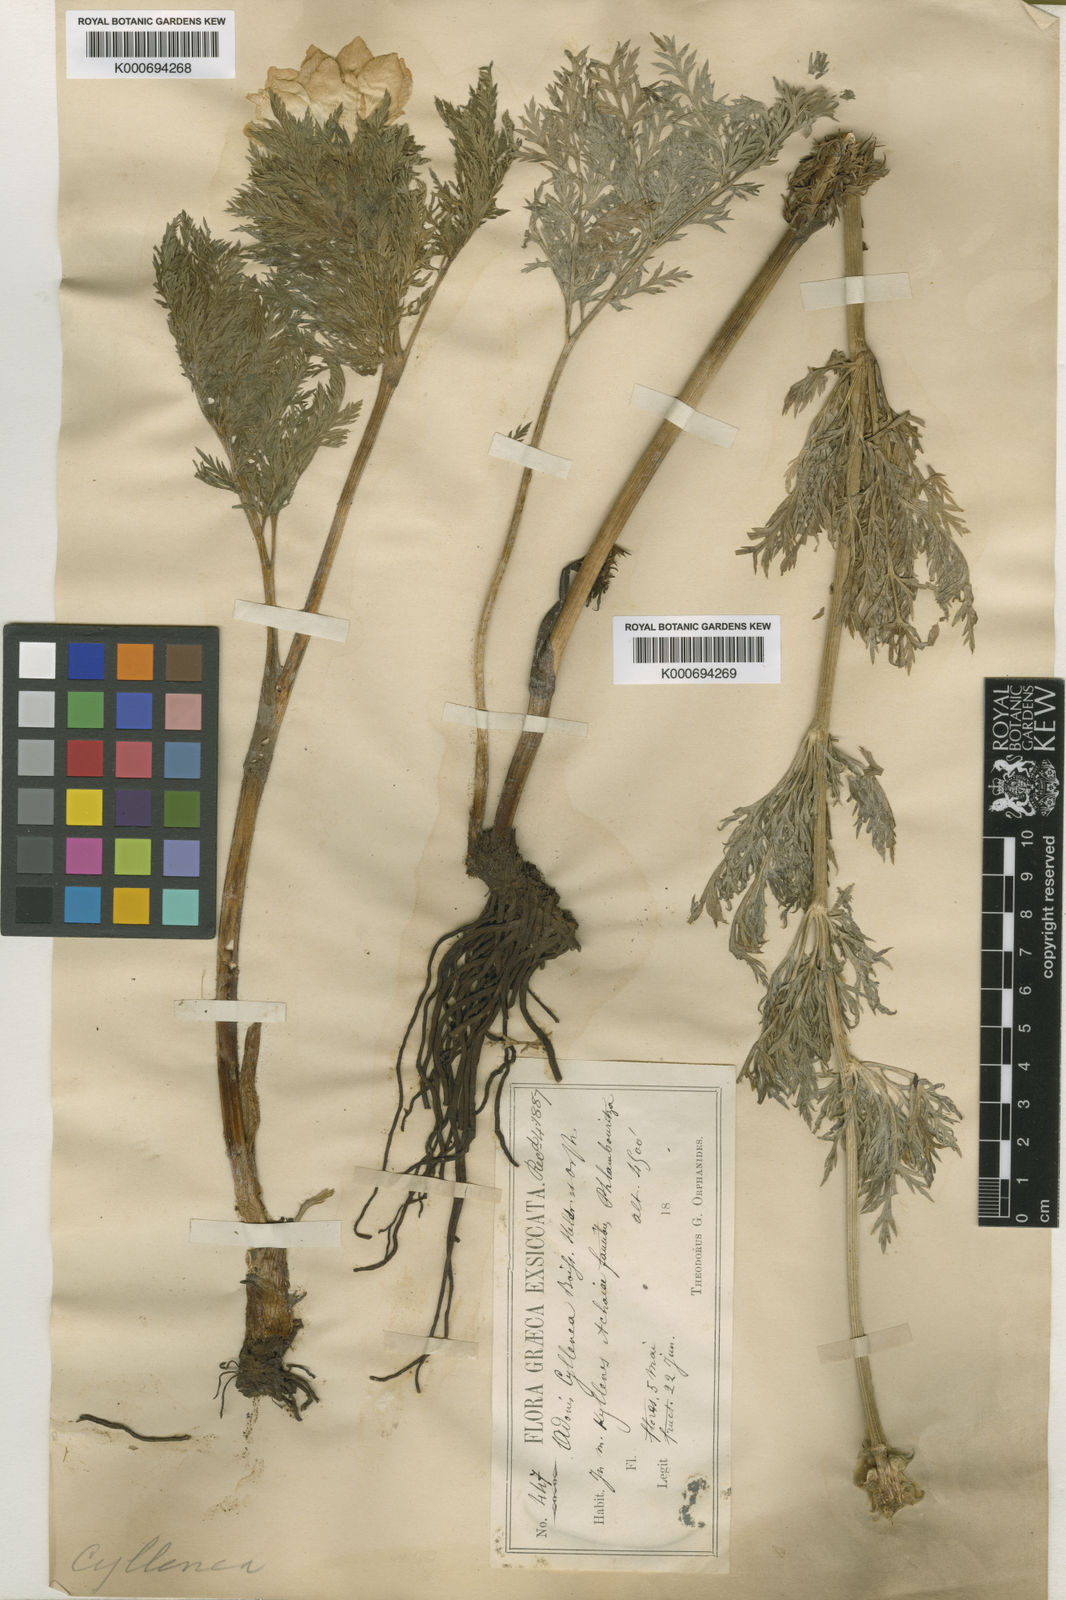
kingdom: Plantae
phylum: Tracheophyta
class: Magnoliopsida
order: Ranunculales
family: Ranunculaceae
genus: Adonis
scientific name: Adonis cyllenea
